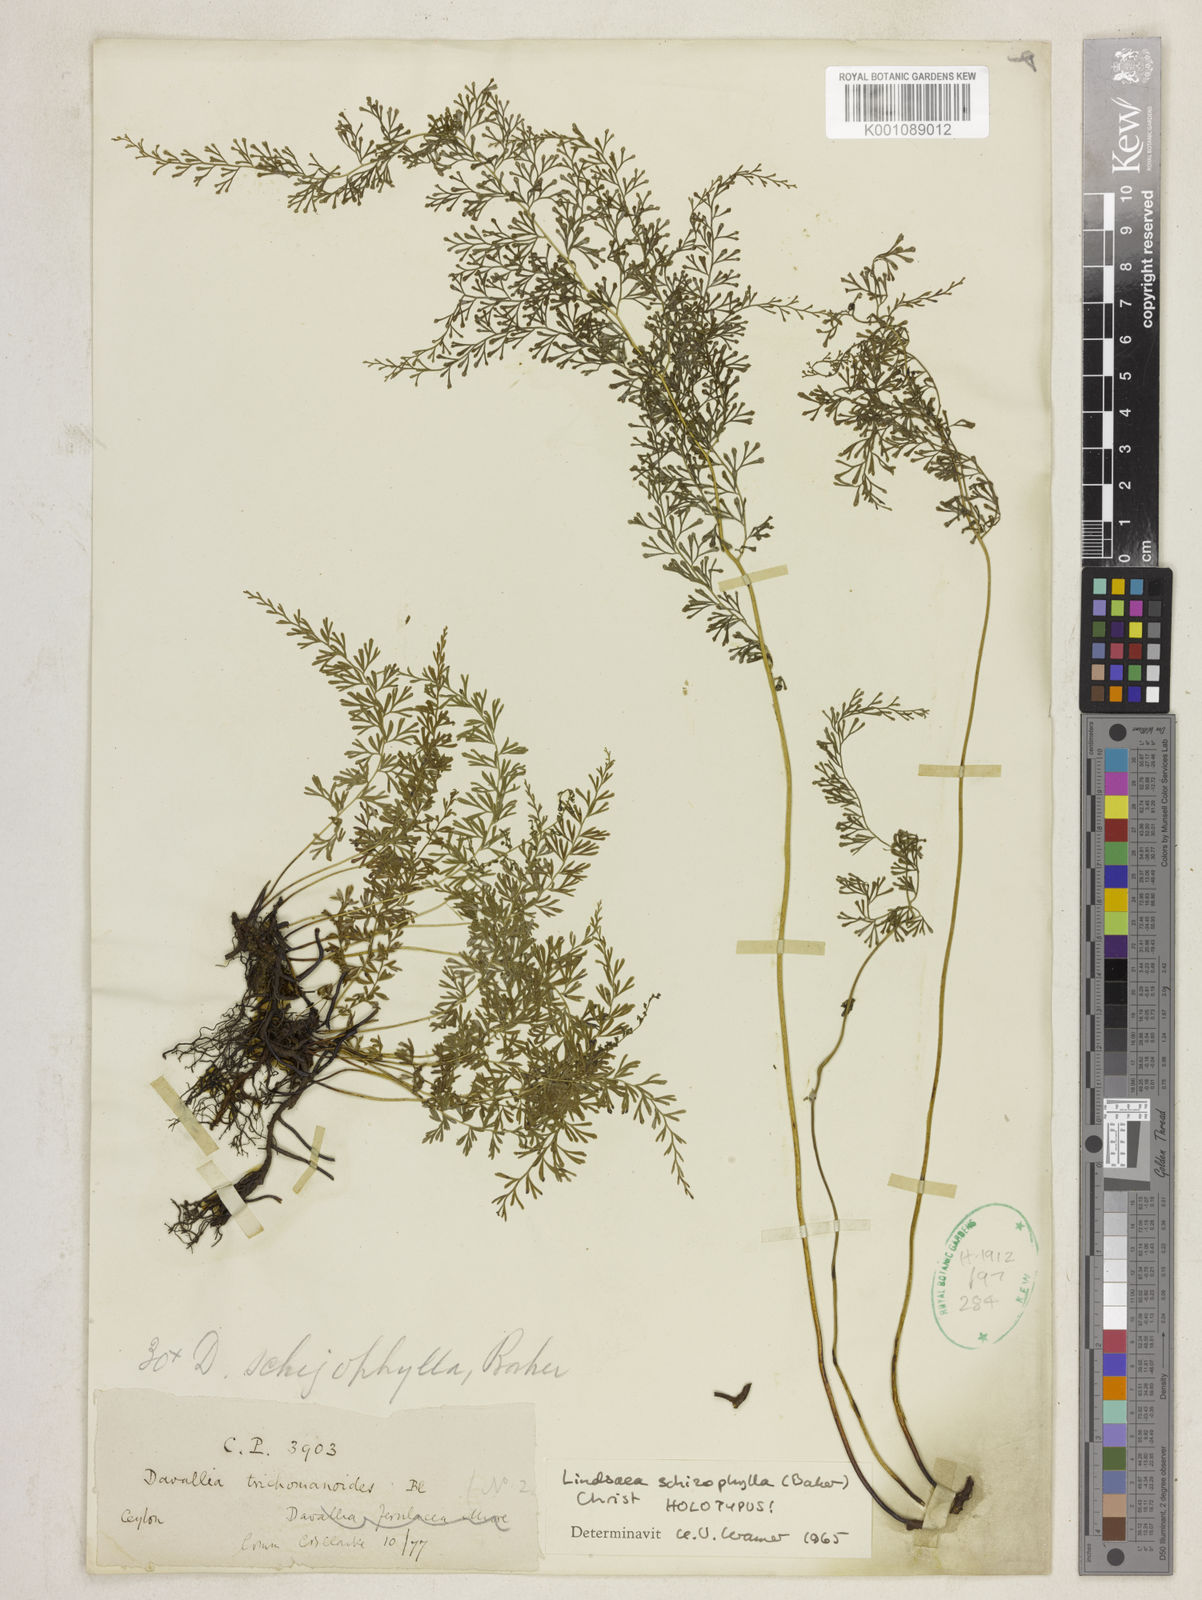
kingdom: Plantae
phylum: Tracheophyta
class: Polypodiopsida
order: Polypodiales
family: Lindsaeaceae
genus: Lindsaea
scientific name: Lindsaea schizophylla
